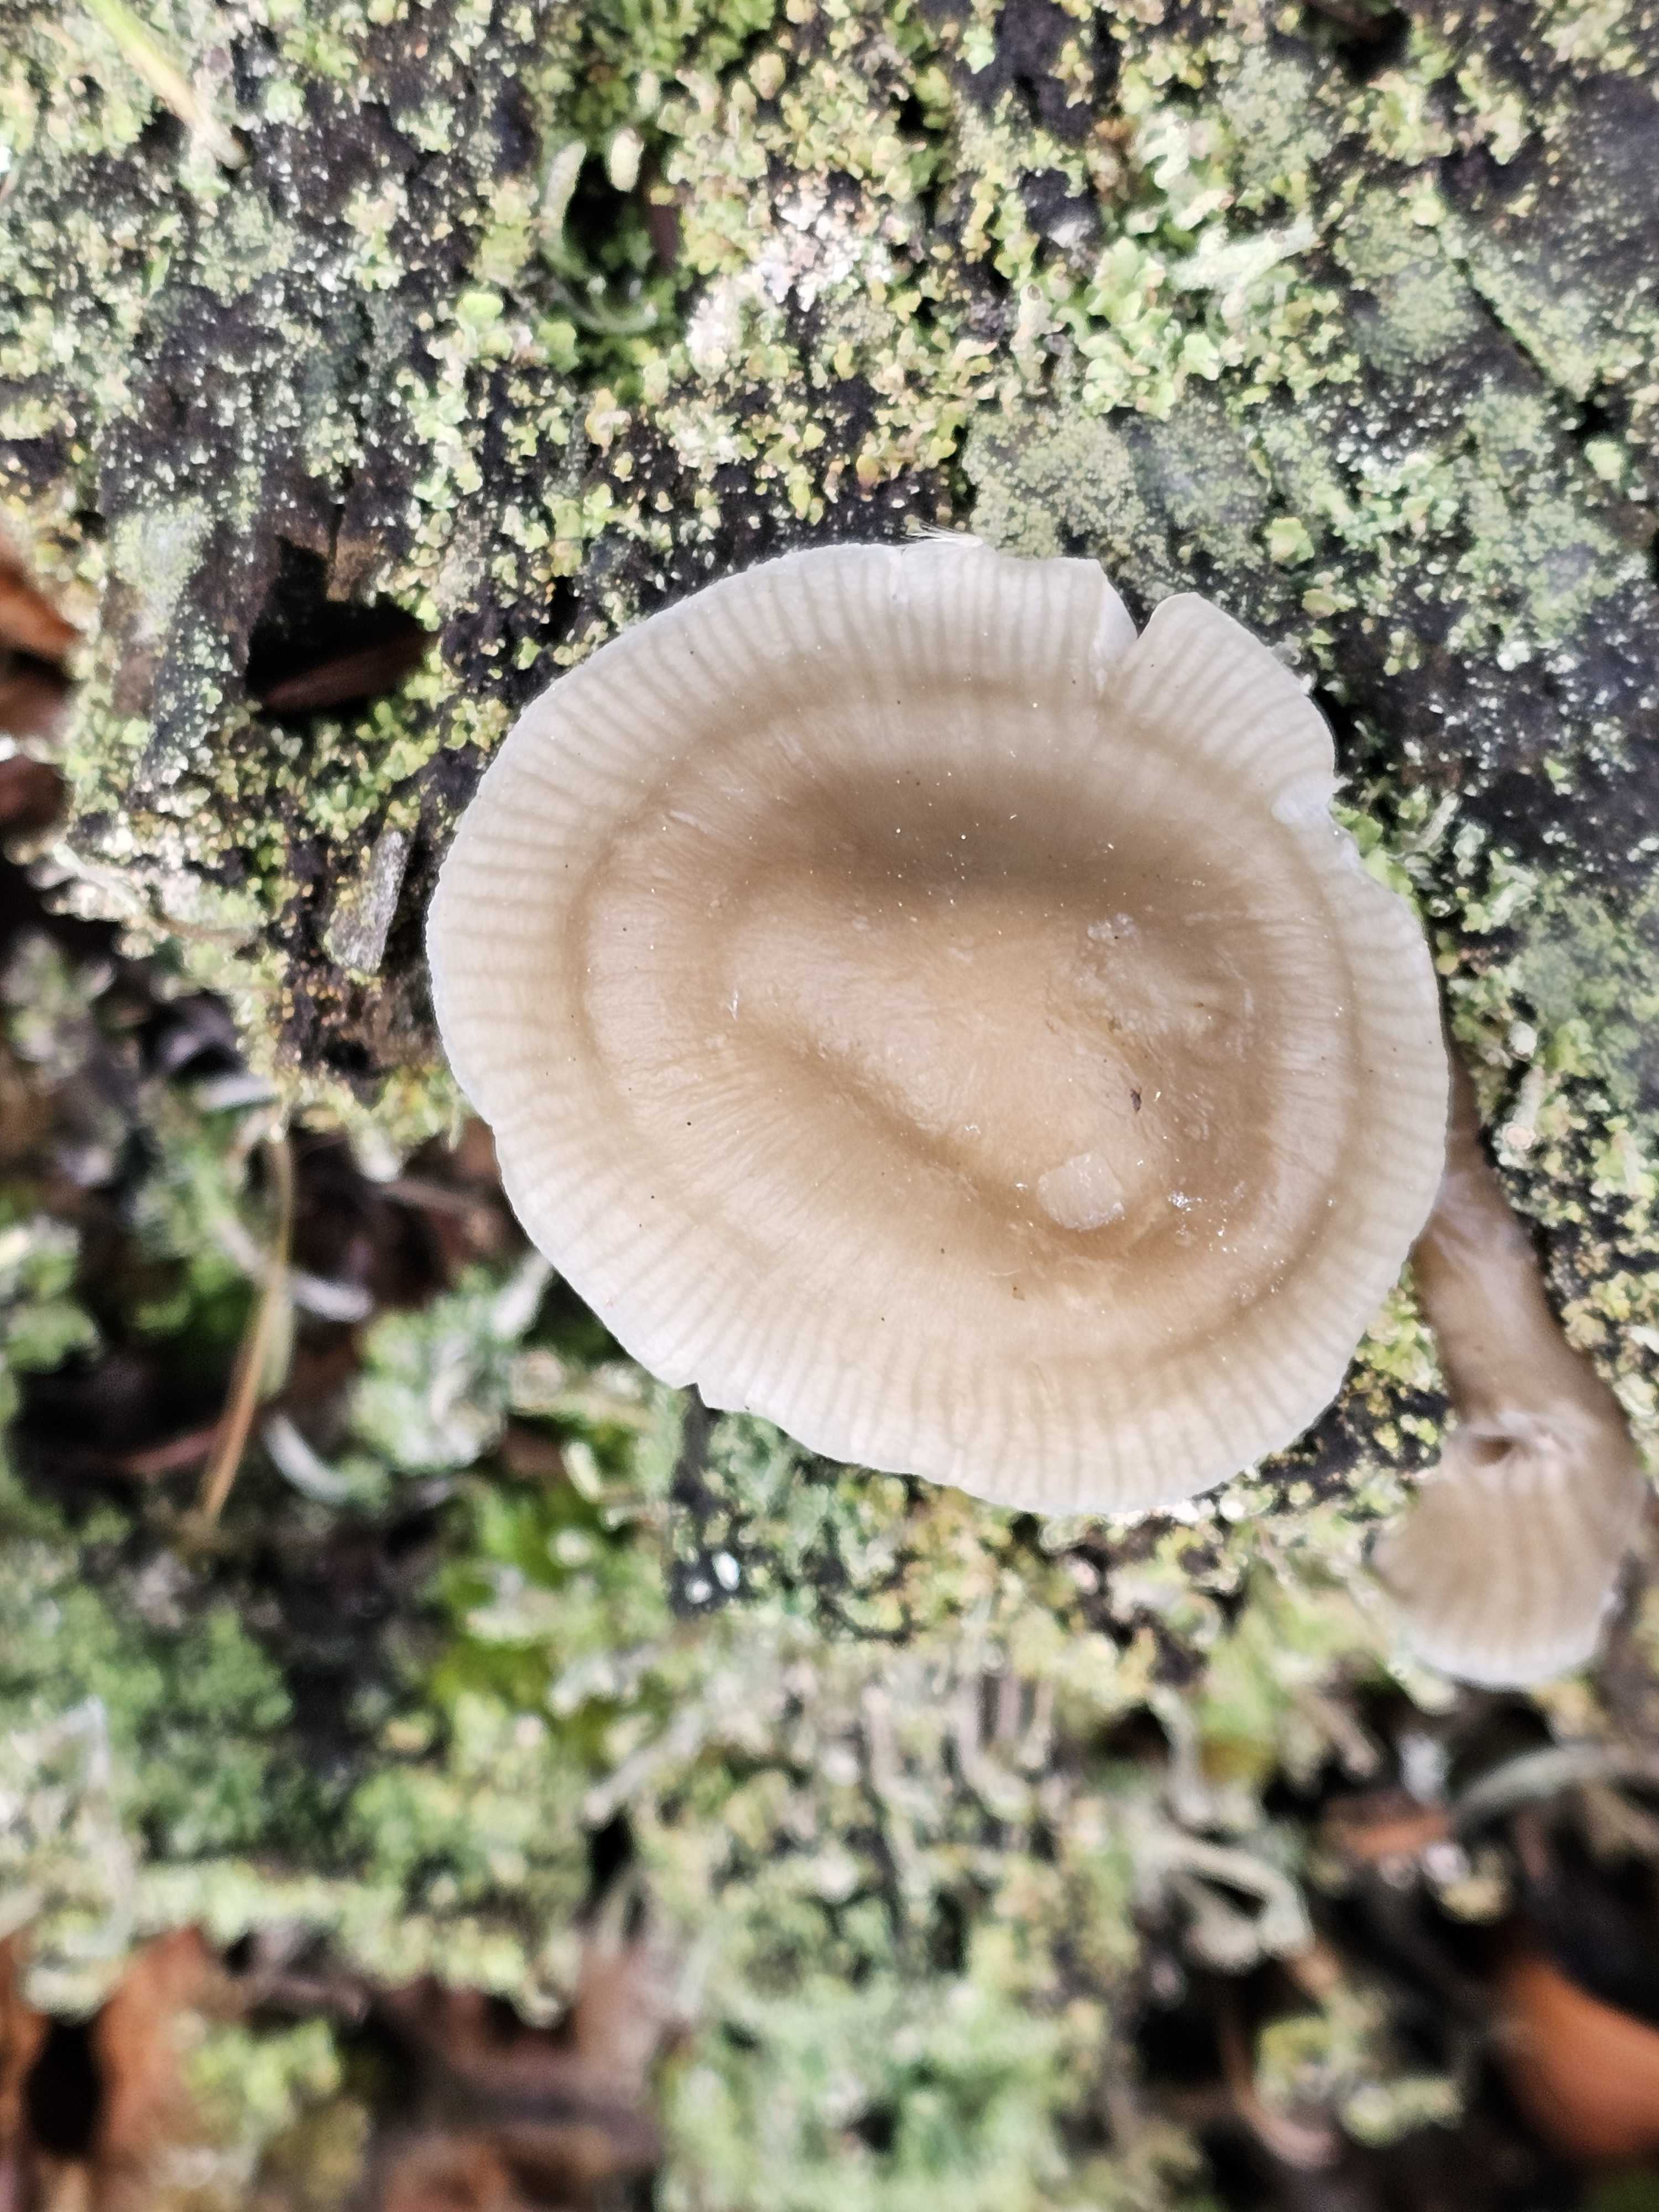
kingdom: Fungi
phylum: Basidiomycota
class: Agaricomycetes
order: Agaricales
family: Mycenaceae
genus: Mycena
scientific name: Mycena galericulata
